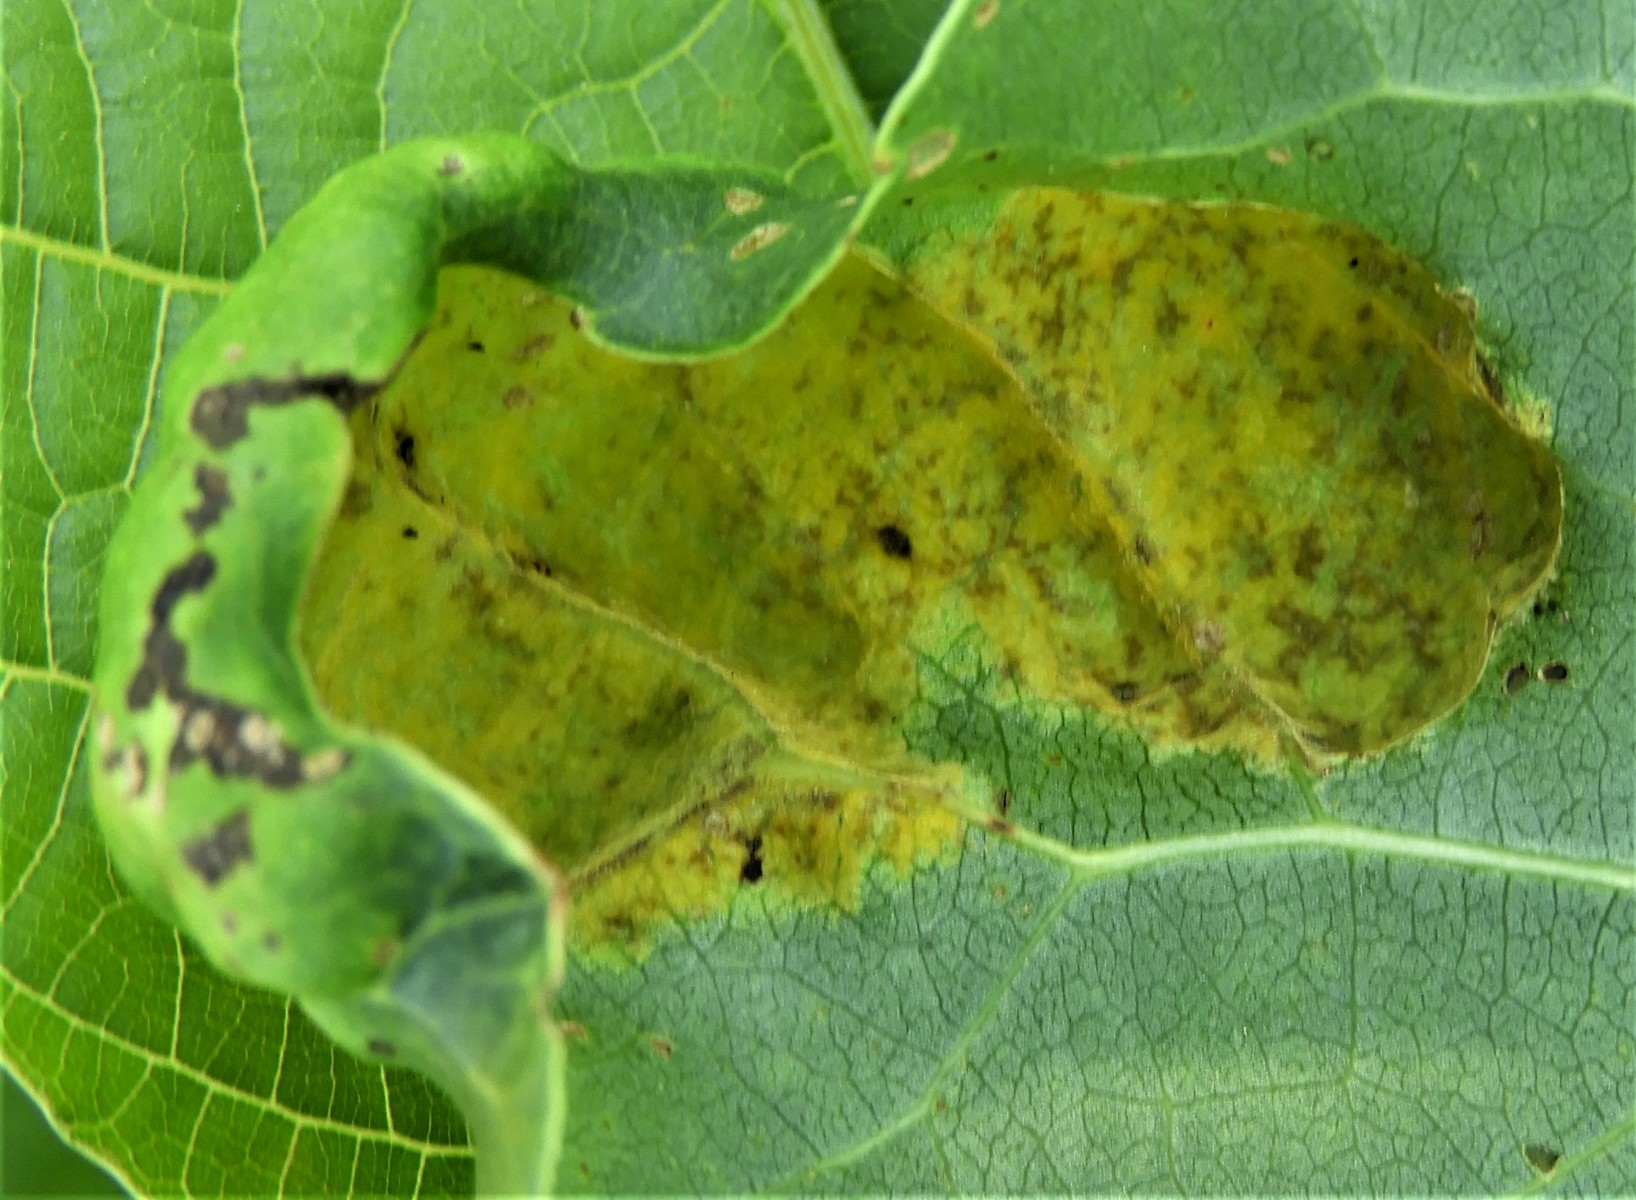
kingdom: Fungi
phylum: Ascomycota
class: Taphrinomycetes
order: Taphrinales
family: Taphrinaceae
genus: Taphrina
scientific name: Taphrina populina
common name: Poplar leaf curl
